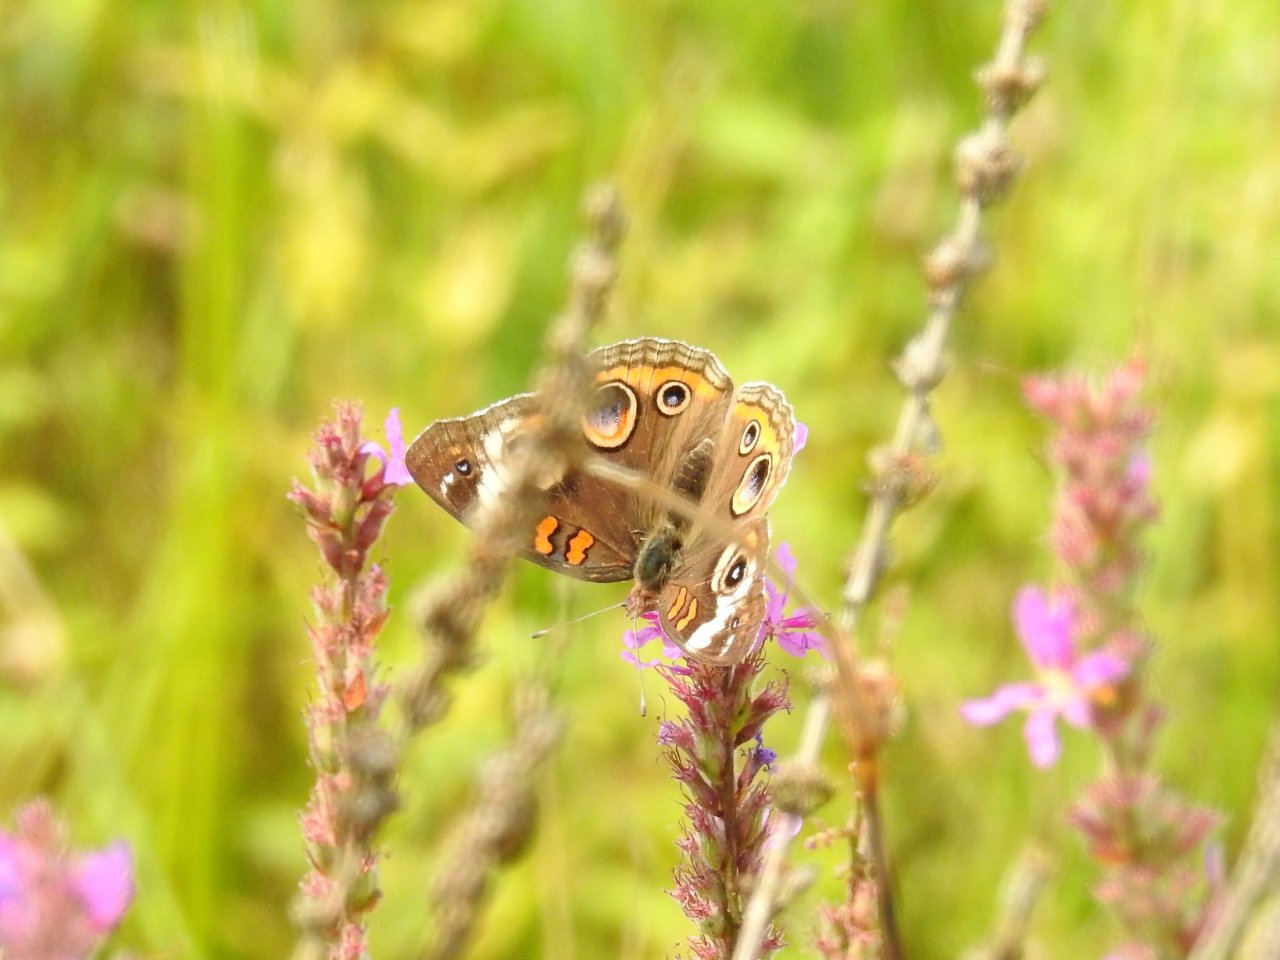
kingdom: Animalia
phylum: Arthropoda
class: Insecta
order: Lepidoptera
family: Nymphalidae
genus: Junonia
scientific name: Junonia coenia
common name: Common Buckeye
